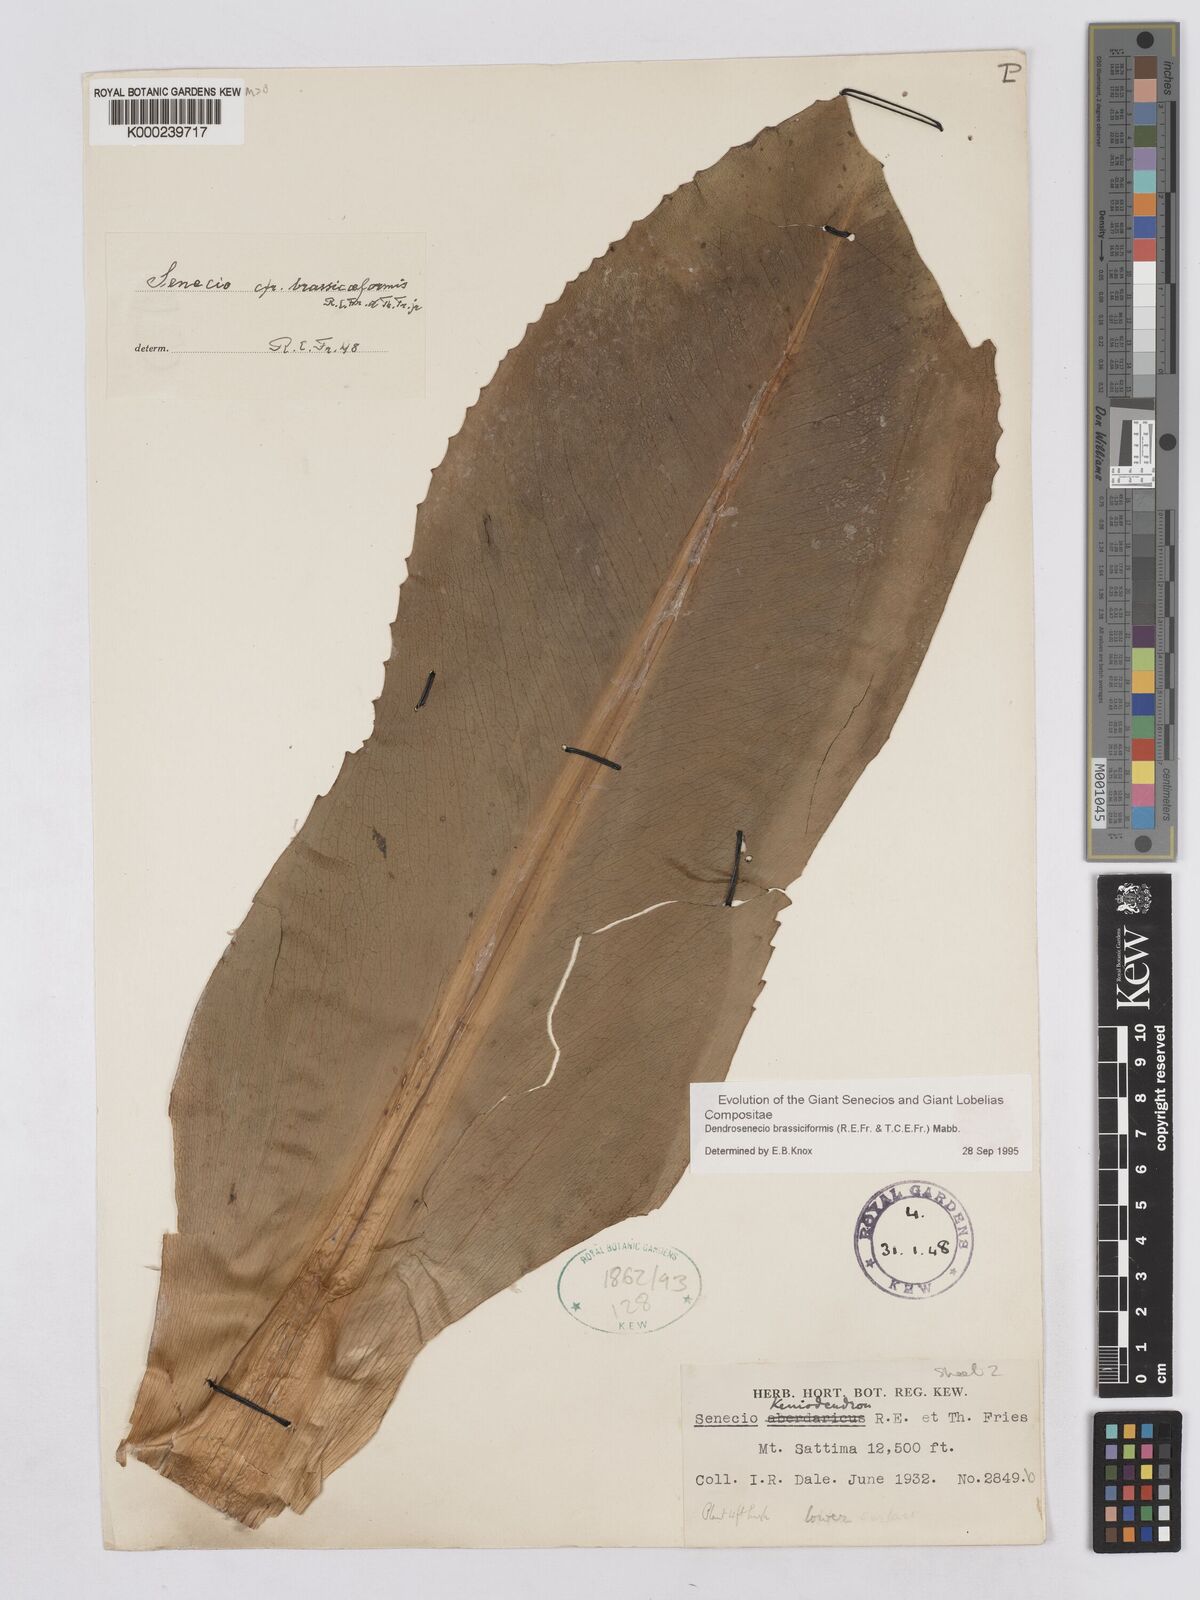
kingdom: Plantae
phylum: Tracheophyta
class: Magnoliopsida
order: Asterales
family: Asteraceae
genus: Dendrosenecio
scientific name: Dendrosenecio brassiciformis
